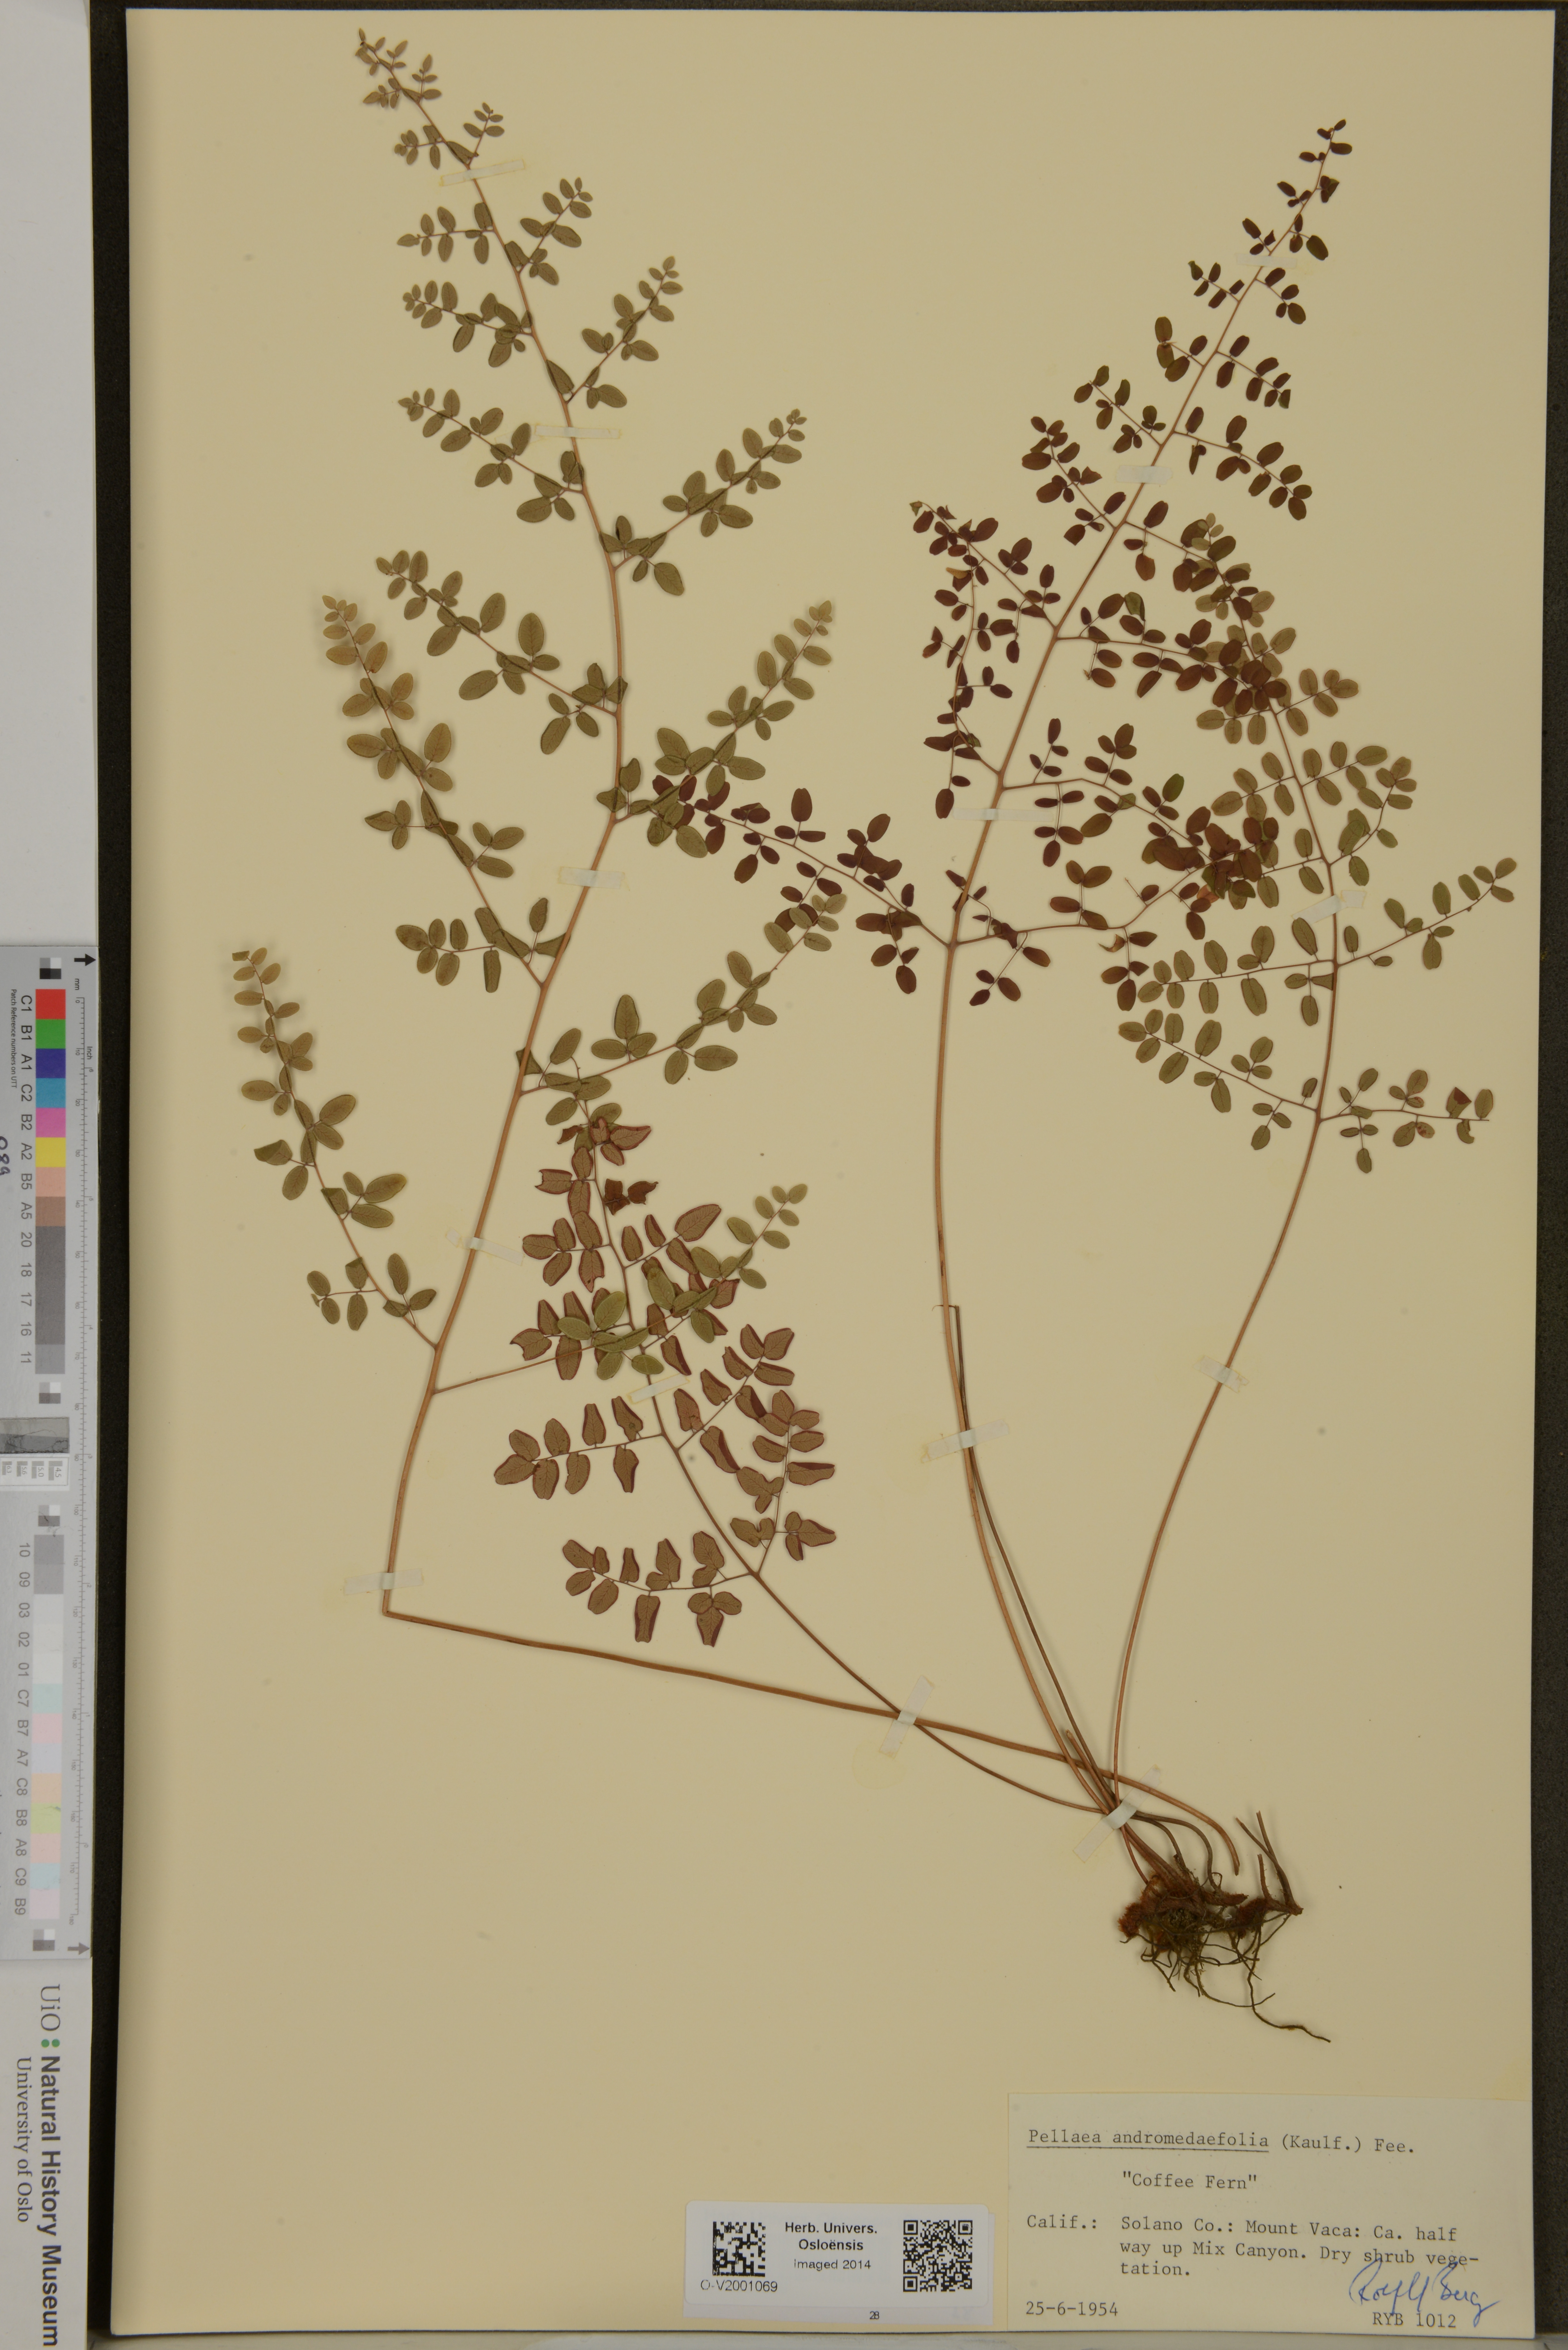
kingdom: Plantae
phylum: Tracheophyta
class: Polypodiopsida
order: Polypodiales
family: Pteridaceae
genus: Pellaea
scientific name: Pellaea andromedifolia
